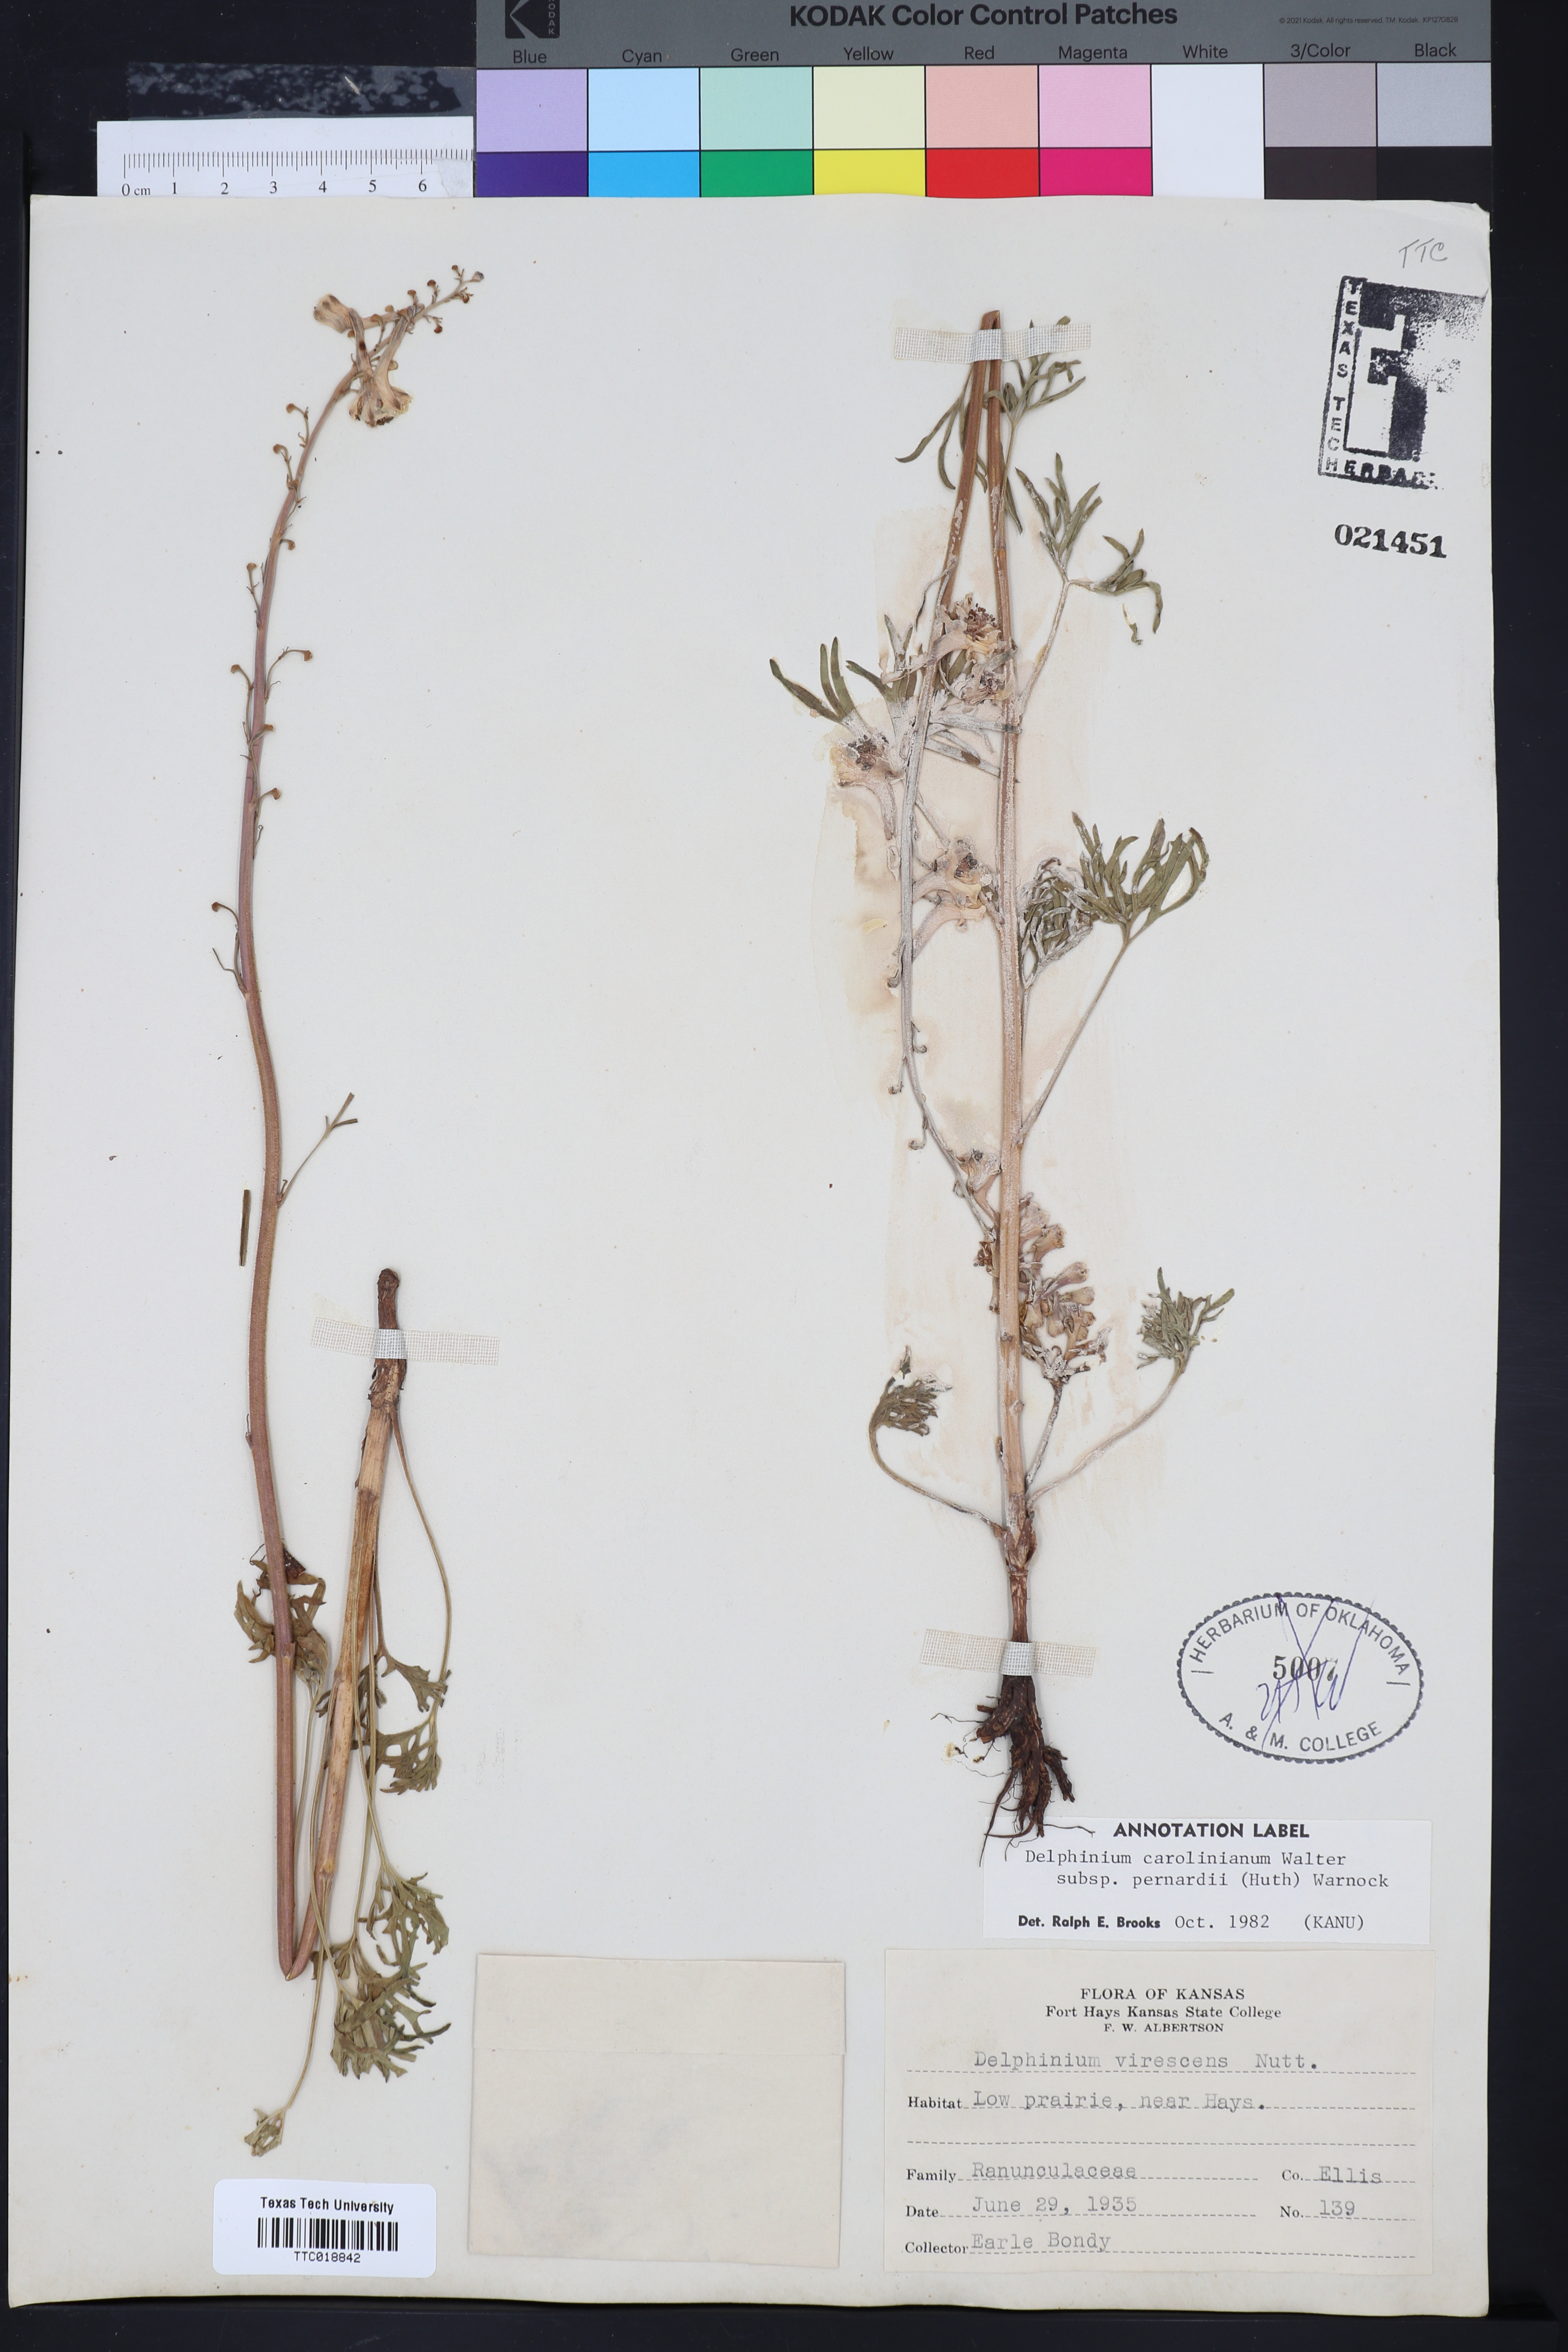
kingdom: Plantae
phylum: Tracheophyta
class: Magnoliopsida
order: Ranunculales
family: Ranunculaceae
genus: Delphinium
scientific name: Delphinium carolinianum
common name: Carolina larkspur
